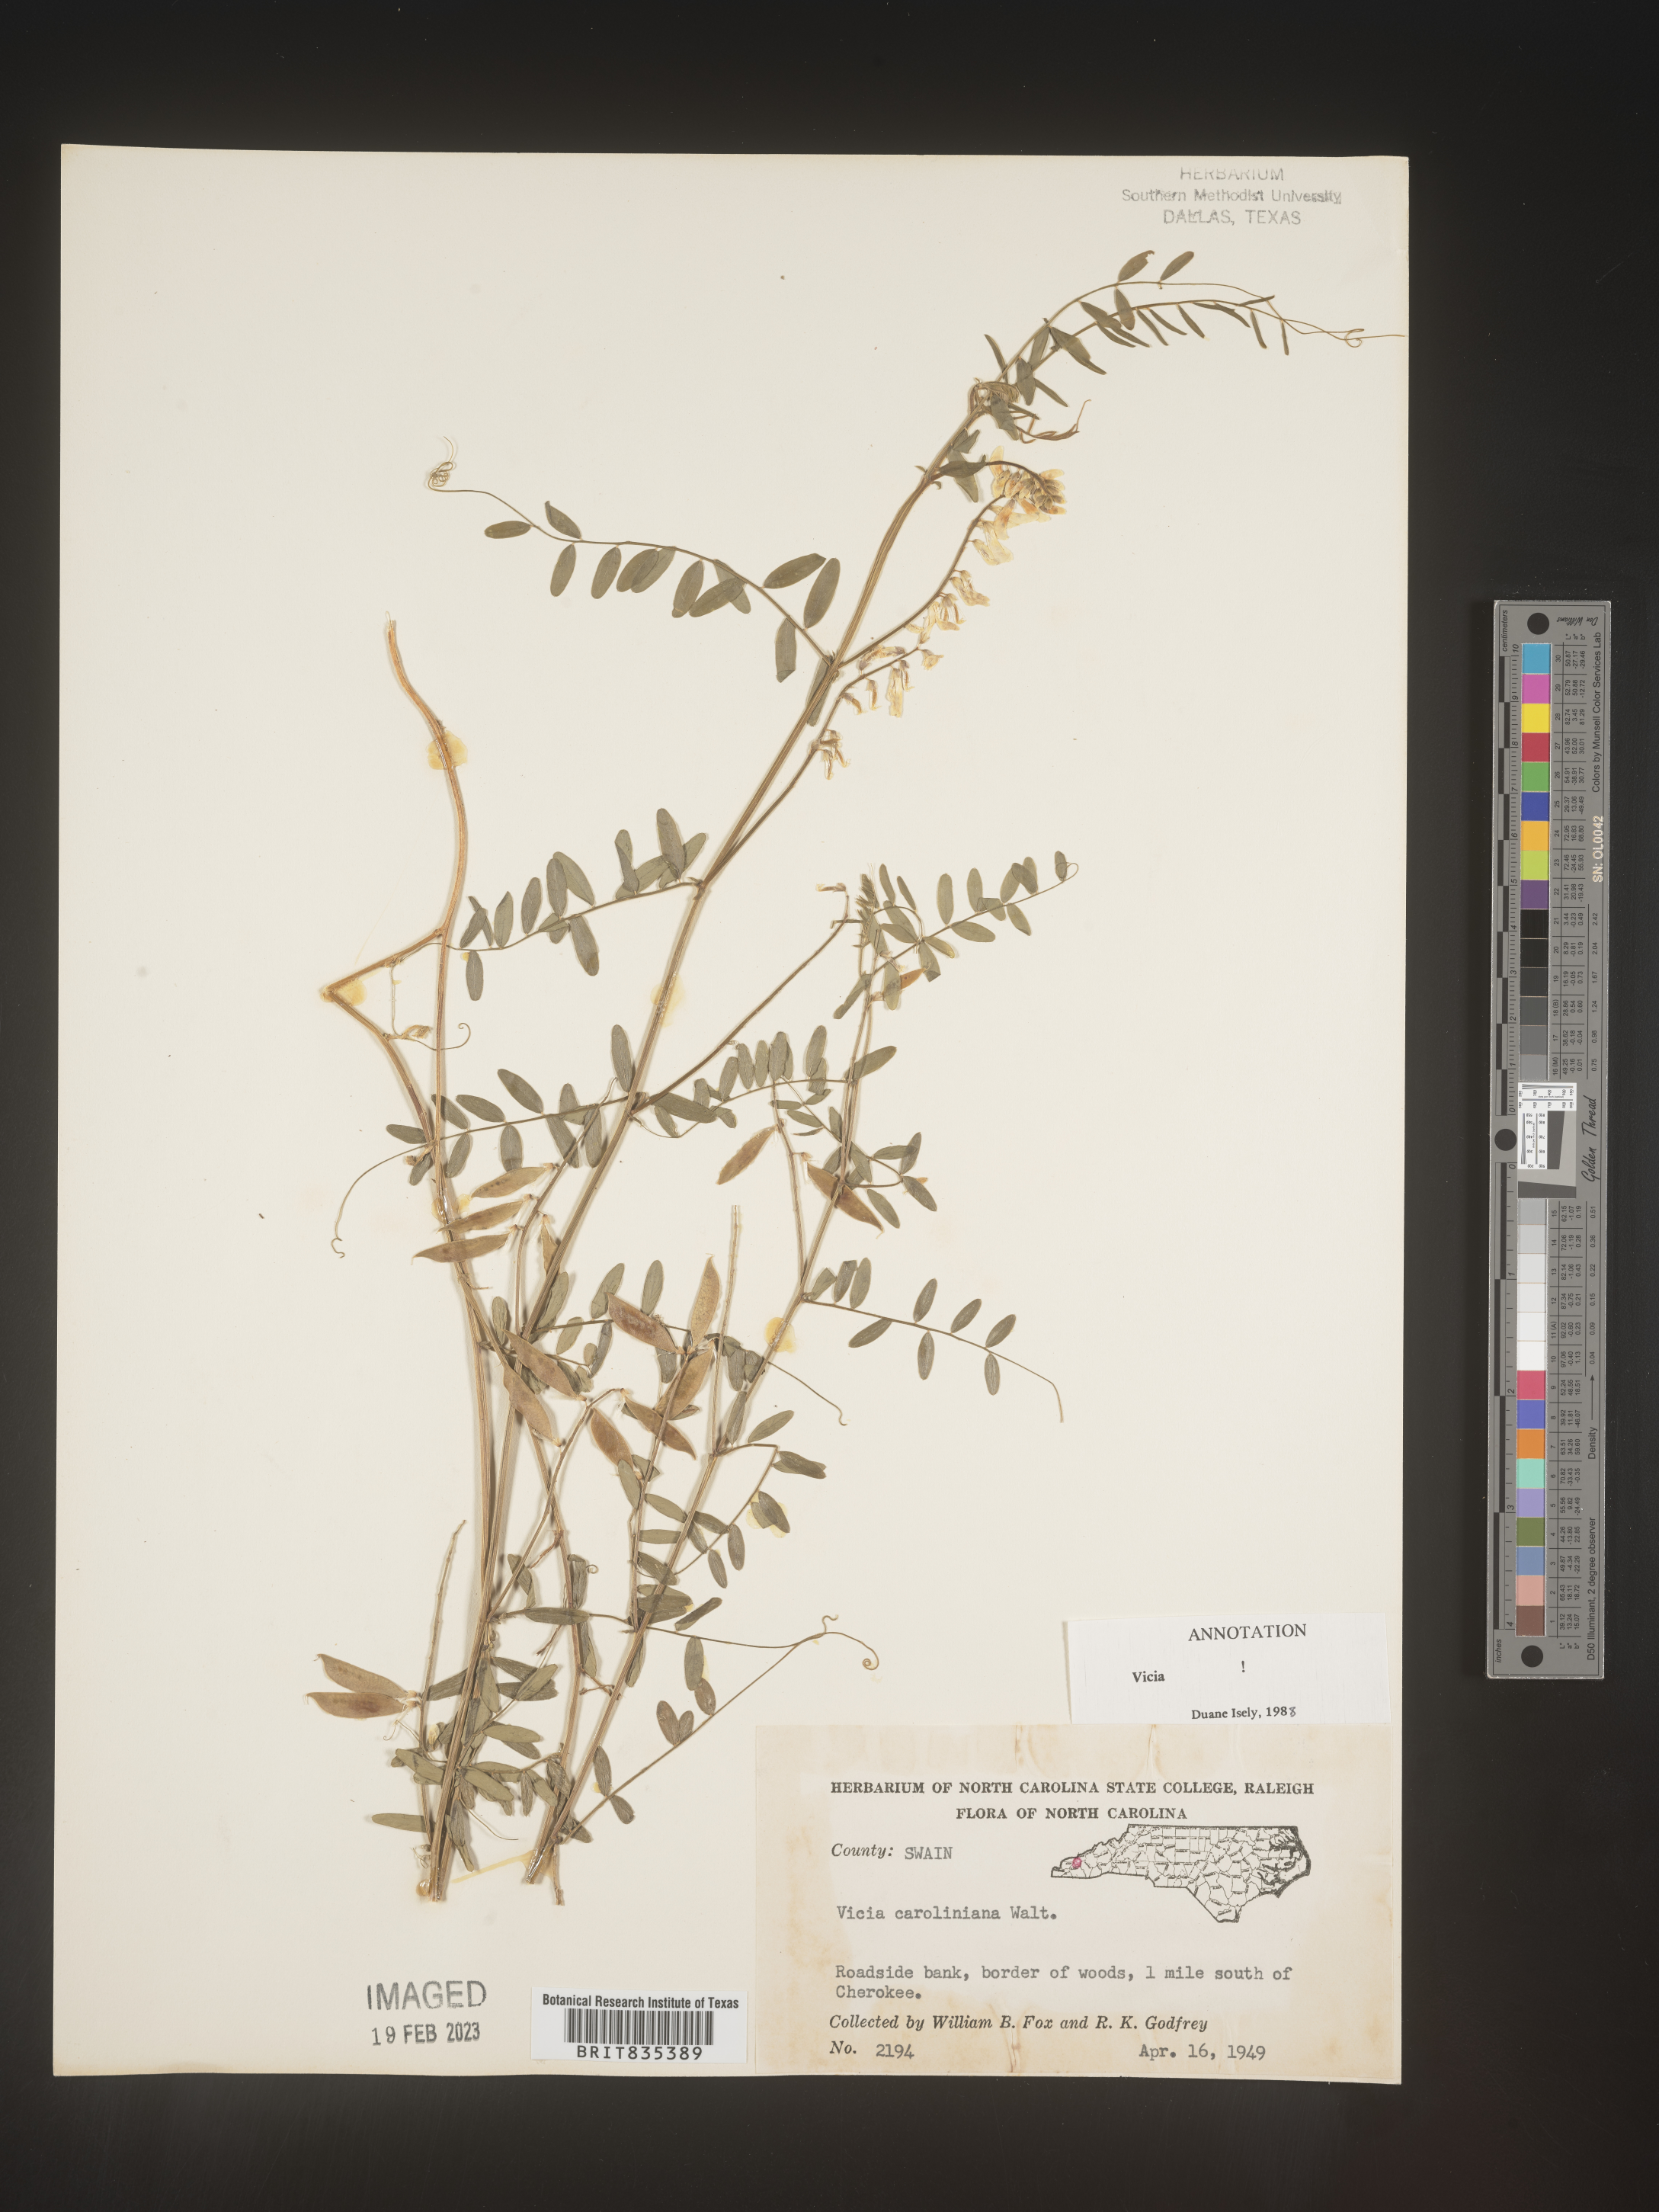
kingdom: Plantae
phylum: Tracheophyta
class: Magnoliopsida
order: Fabales
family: Fabaceae
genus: Vicia
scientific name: Vicia caroliniana
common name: Carolina vetch
